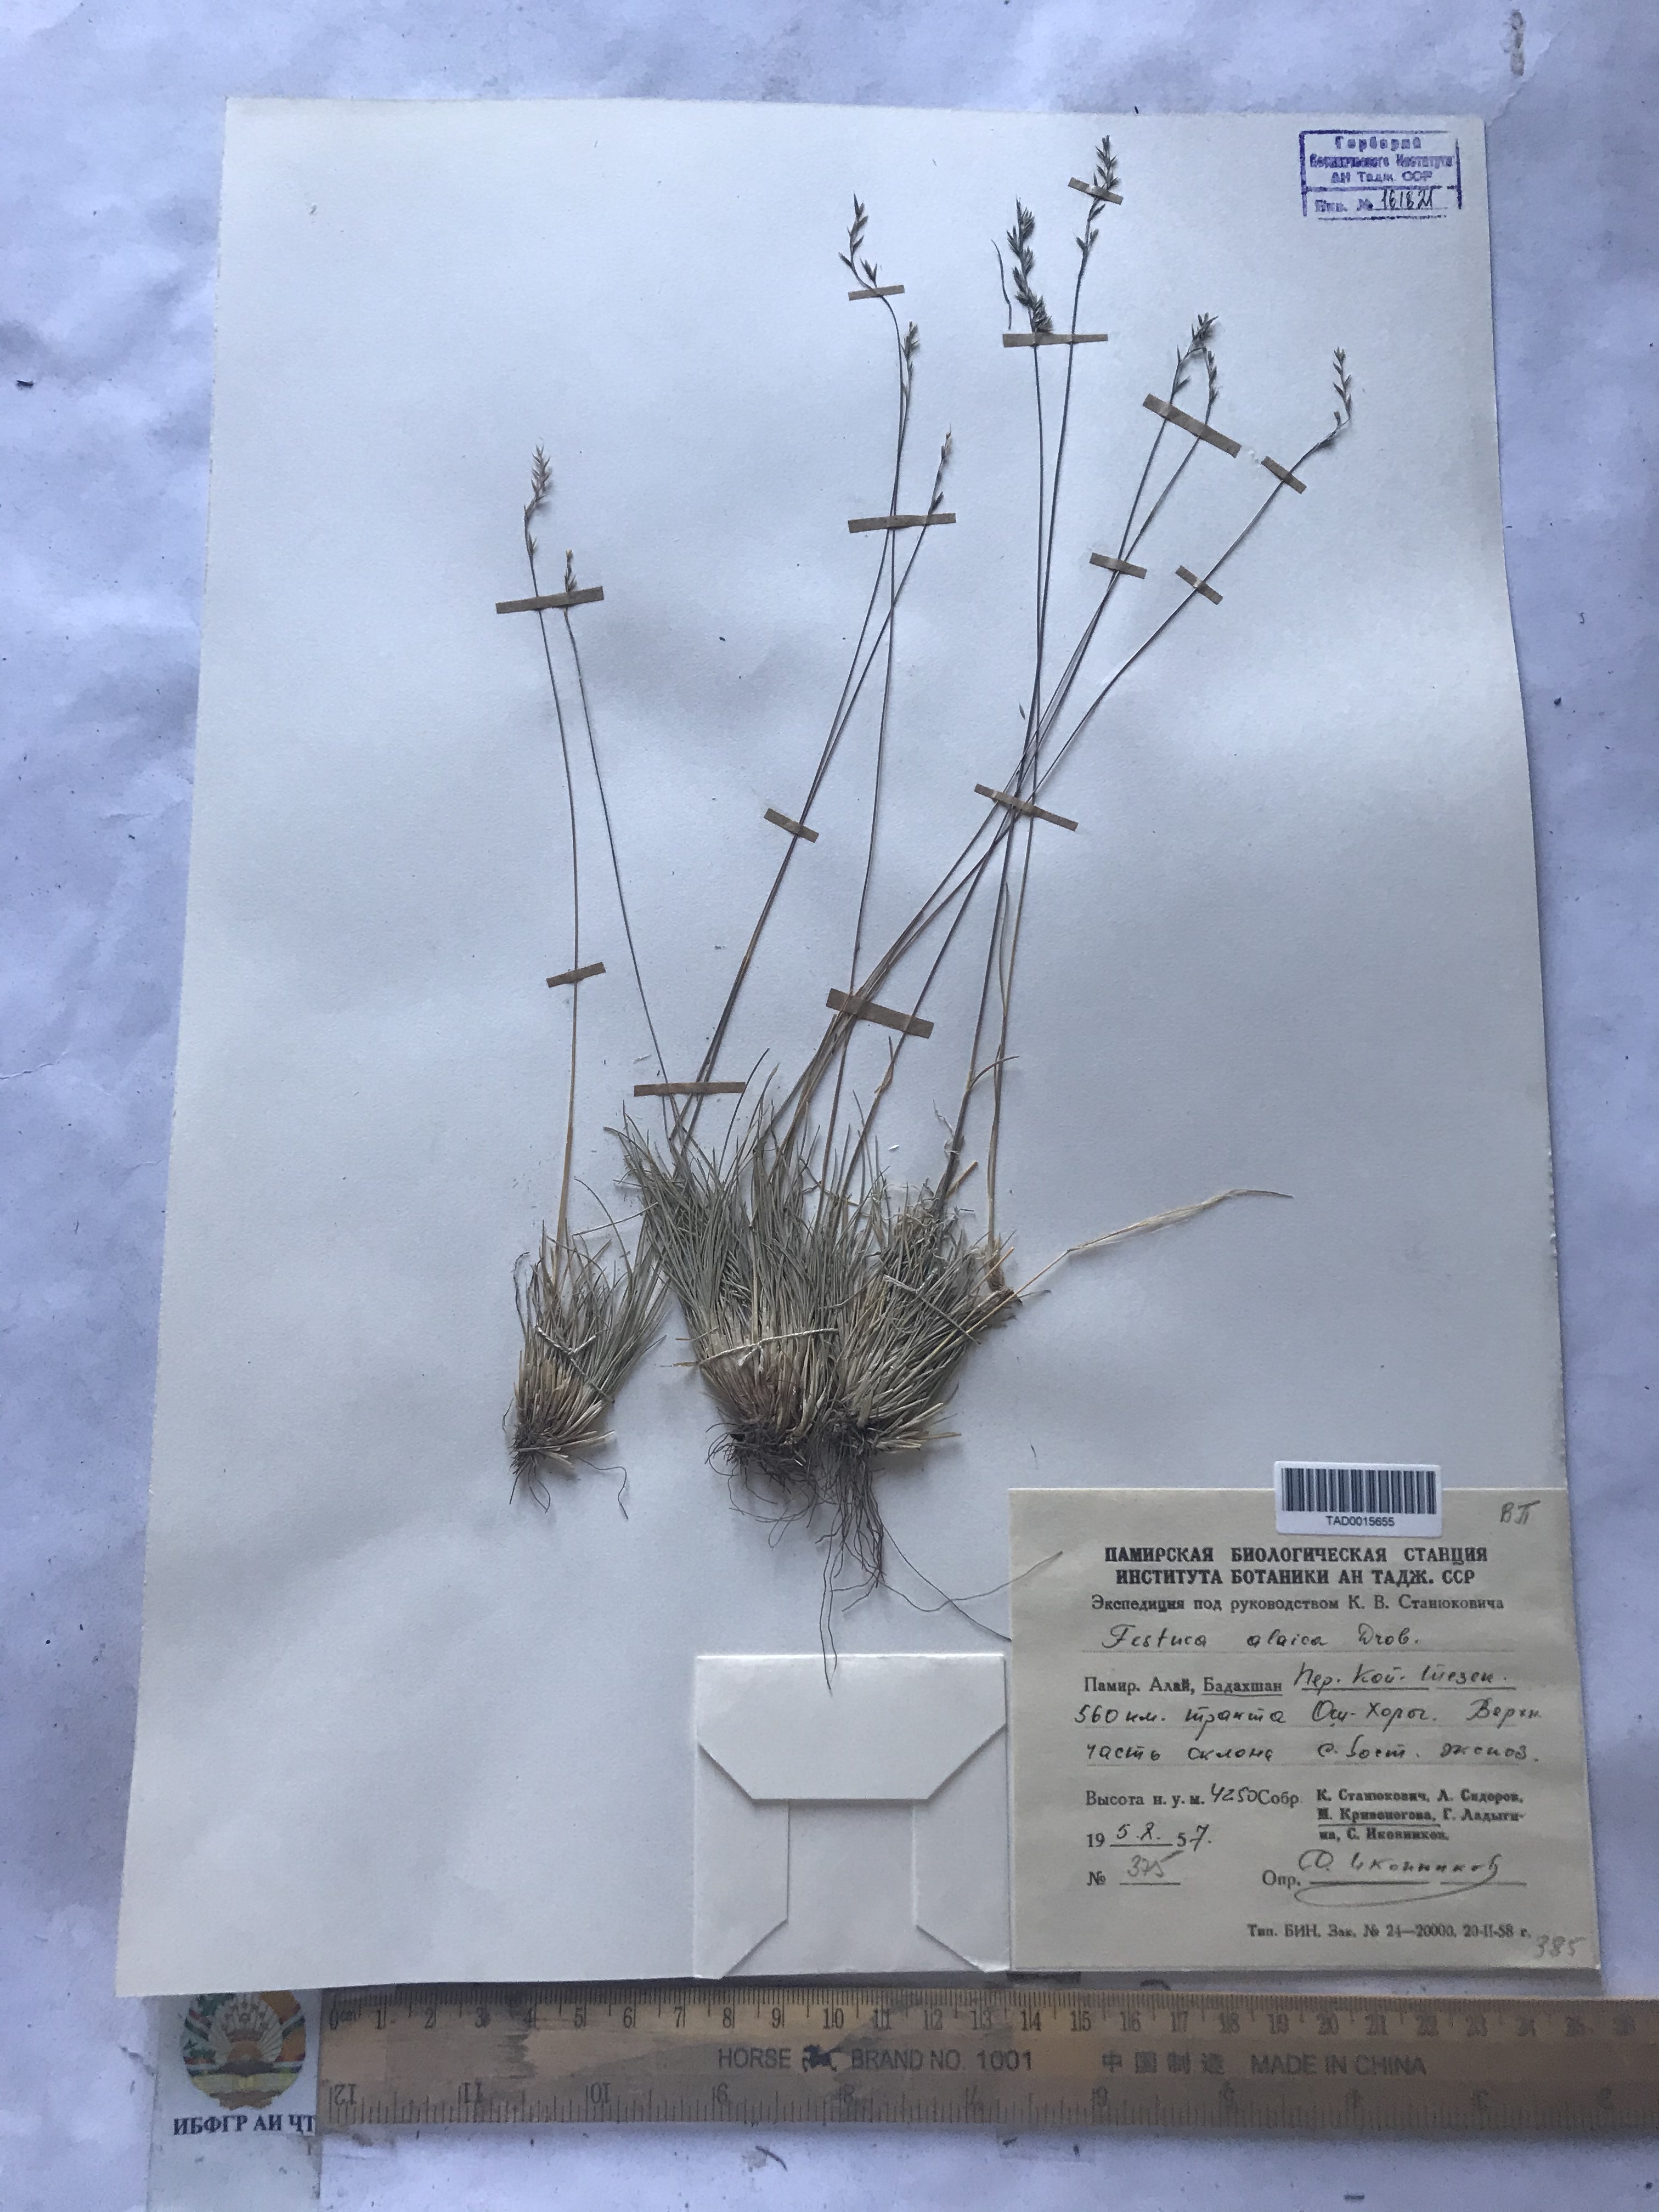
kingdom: Plantae
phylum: Tracheophyta
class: Liliopsida
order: Poales
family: Poaceae
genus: Festuca
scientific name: Festuca alaica
